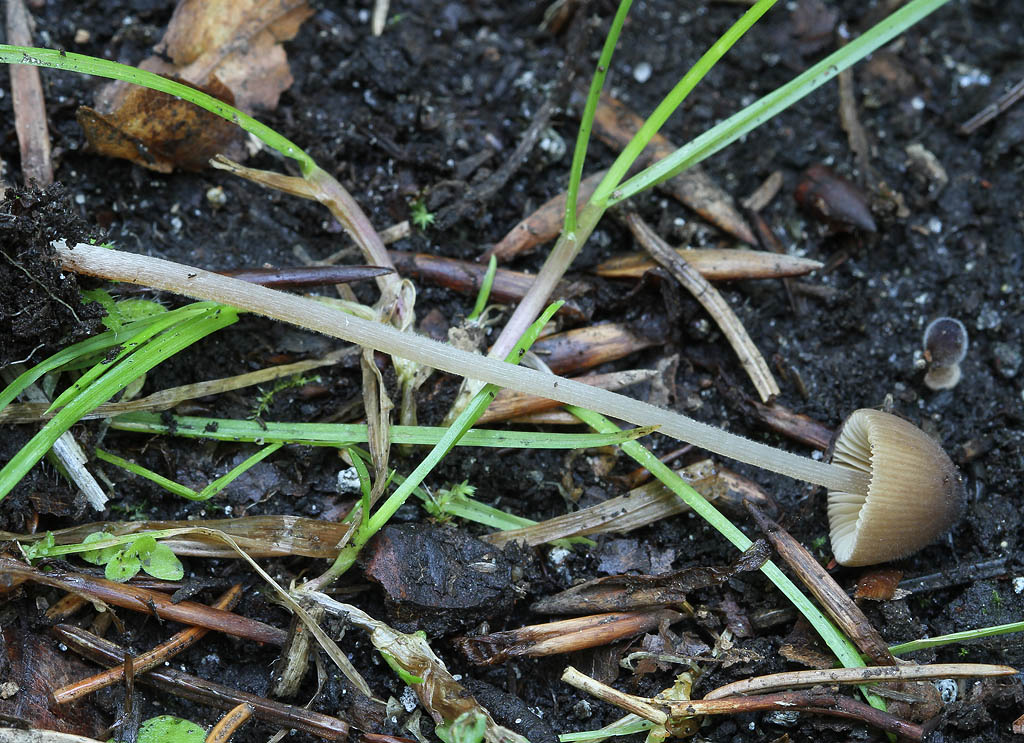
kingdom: Fungi
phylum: Basidiomycota
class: Agaricomycetes
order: Agaricales
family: Bolbitiaceae
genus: Conocybe
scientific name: Conocybe moseri
